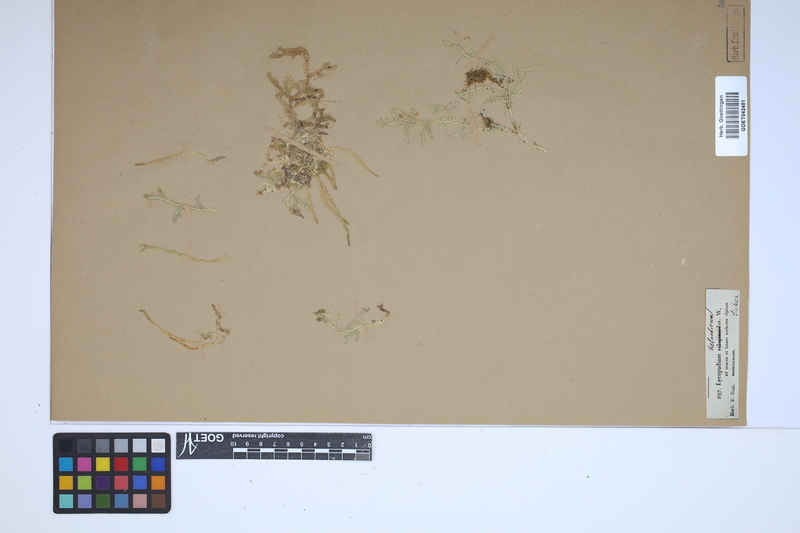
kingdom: Plantae
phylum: Tracheophyta
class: Lycopodiopsida
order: Selaginellales
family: Selaginellaceae
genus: Selaginella
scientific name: Selaginella helvetica
